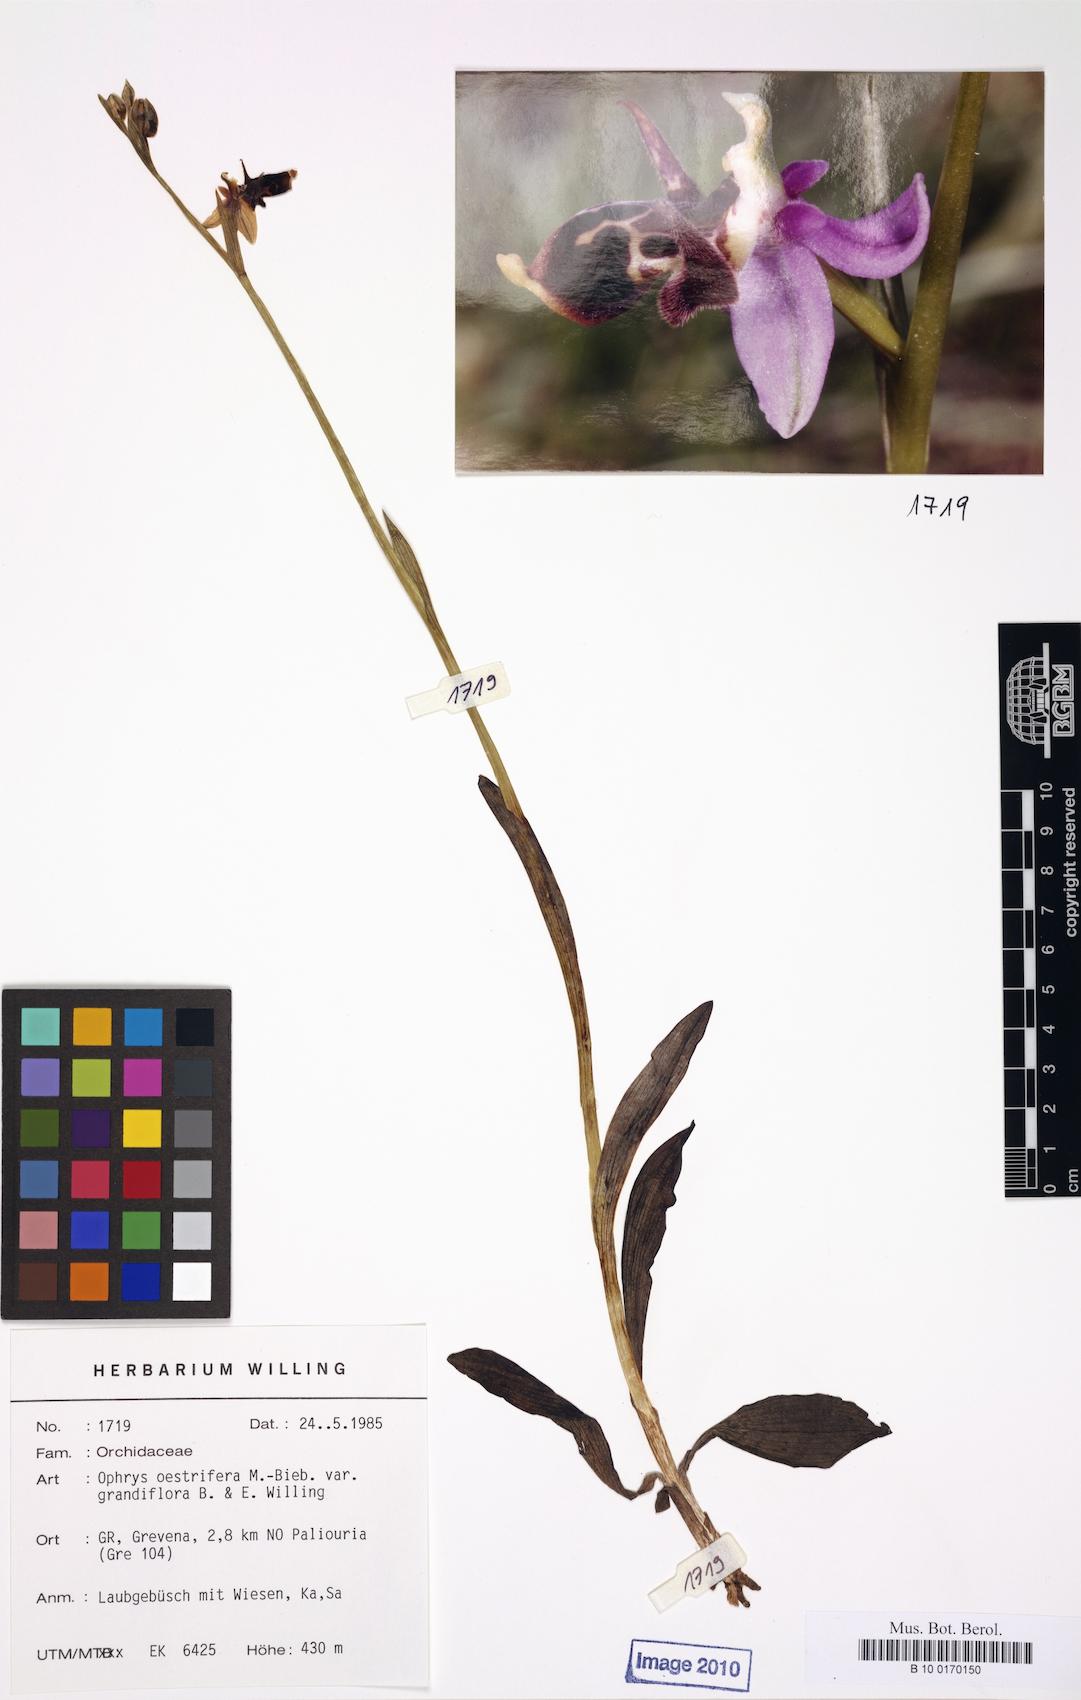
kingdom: Plantae
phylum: Tracheophyta
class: Liliopsida
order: Asparagales
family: Orchidaceae
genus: Ophrys
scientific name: Ophrys scolopax
